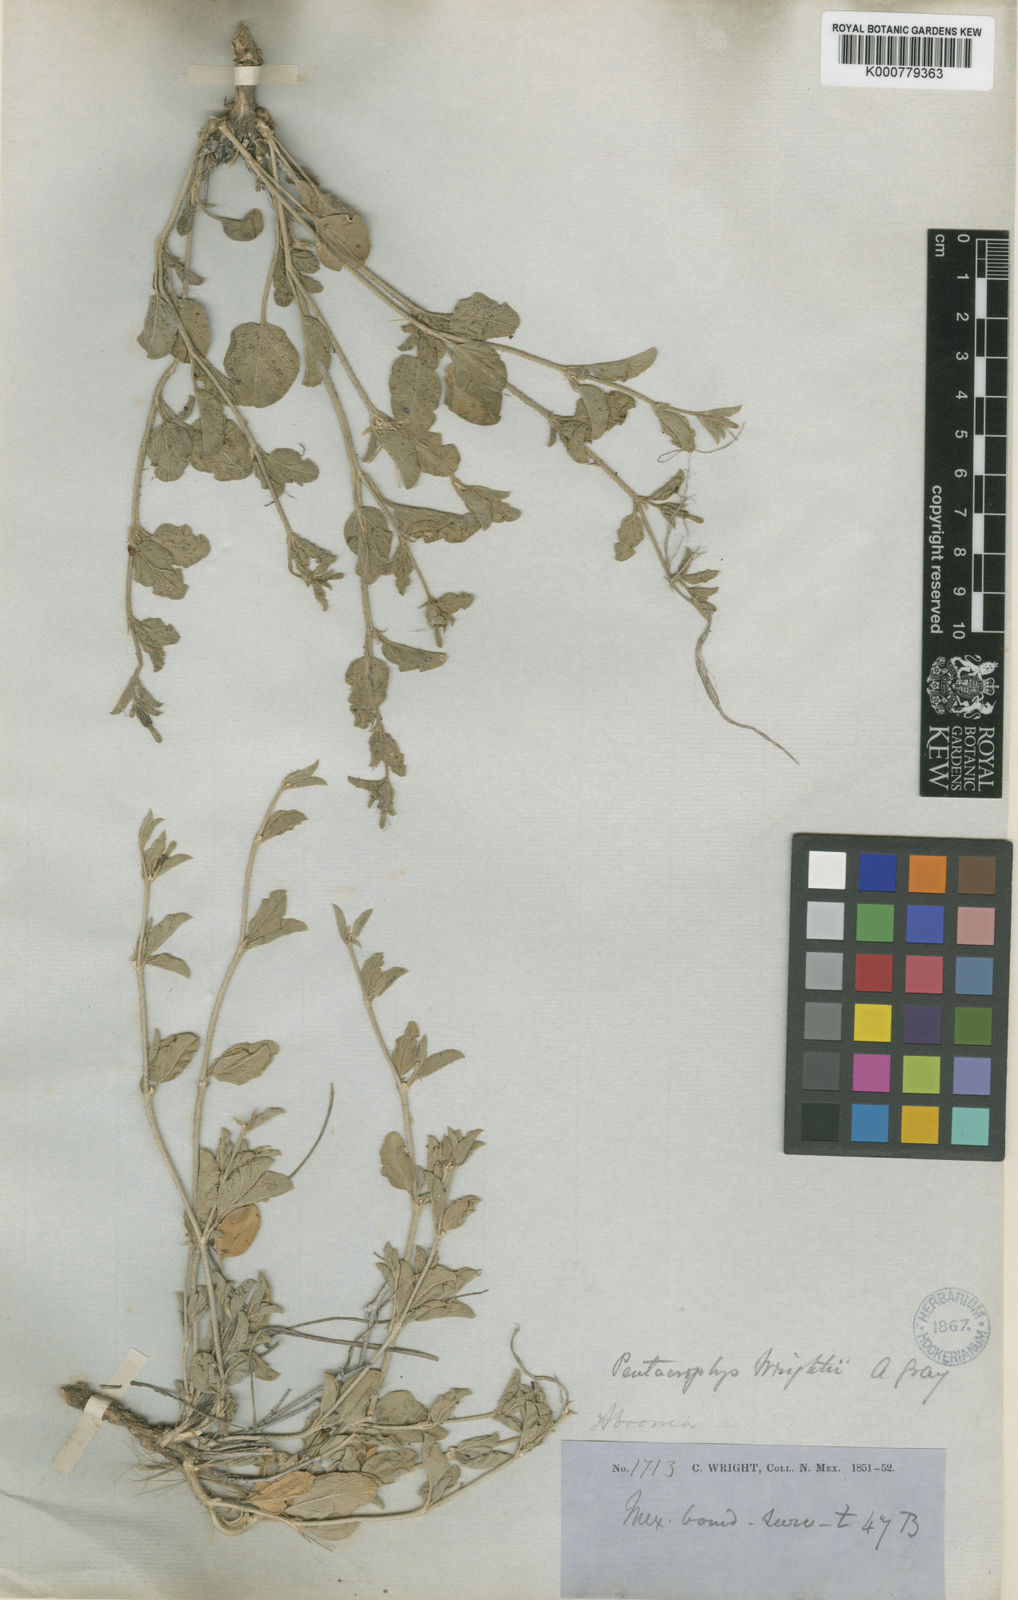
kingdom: Plantae
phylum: Tracheophyta
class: Magnoliopsida
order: Caryophyllales
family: Nyctaginaceae
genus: Acleisanthes
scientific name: Acleisanthes wrightii
